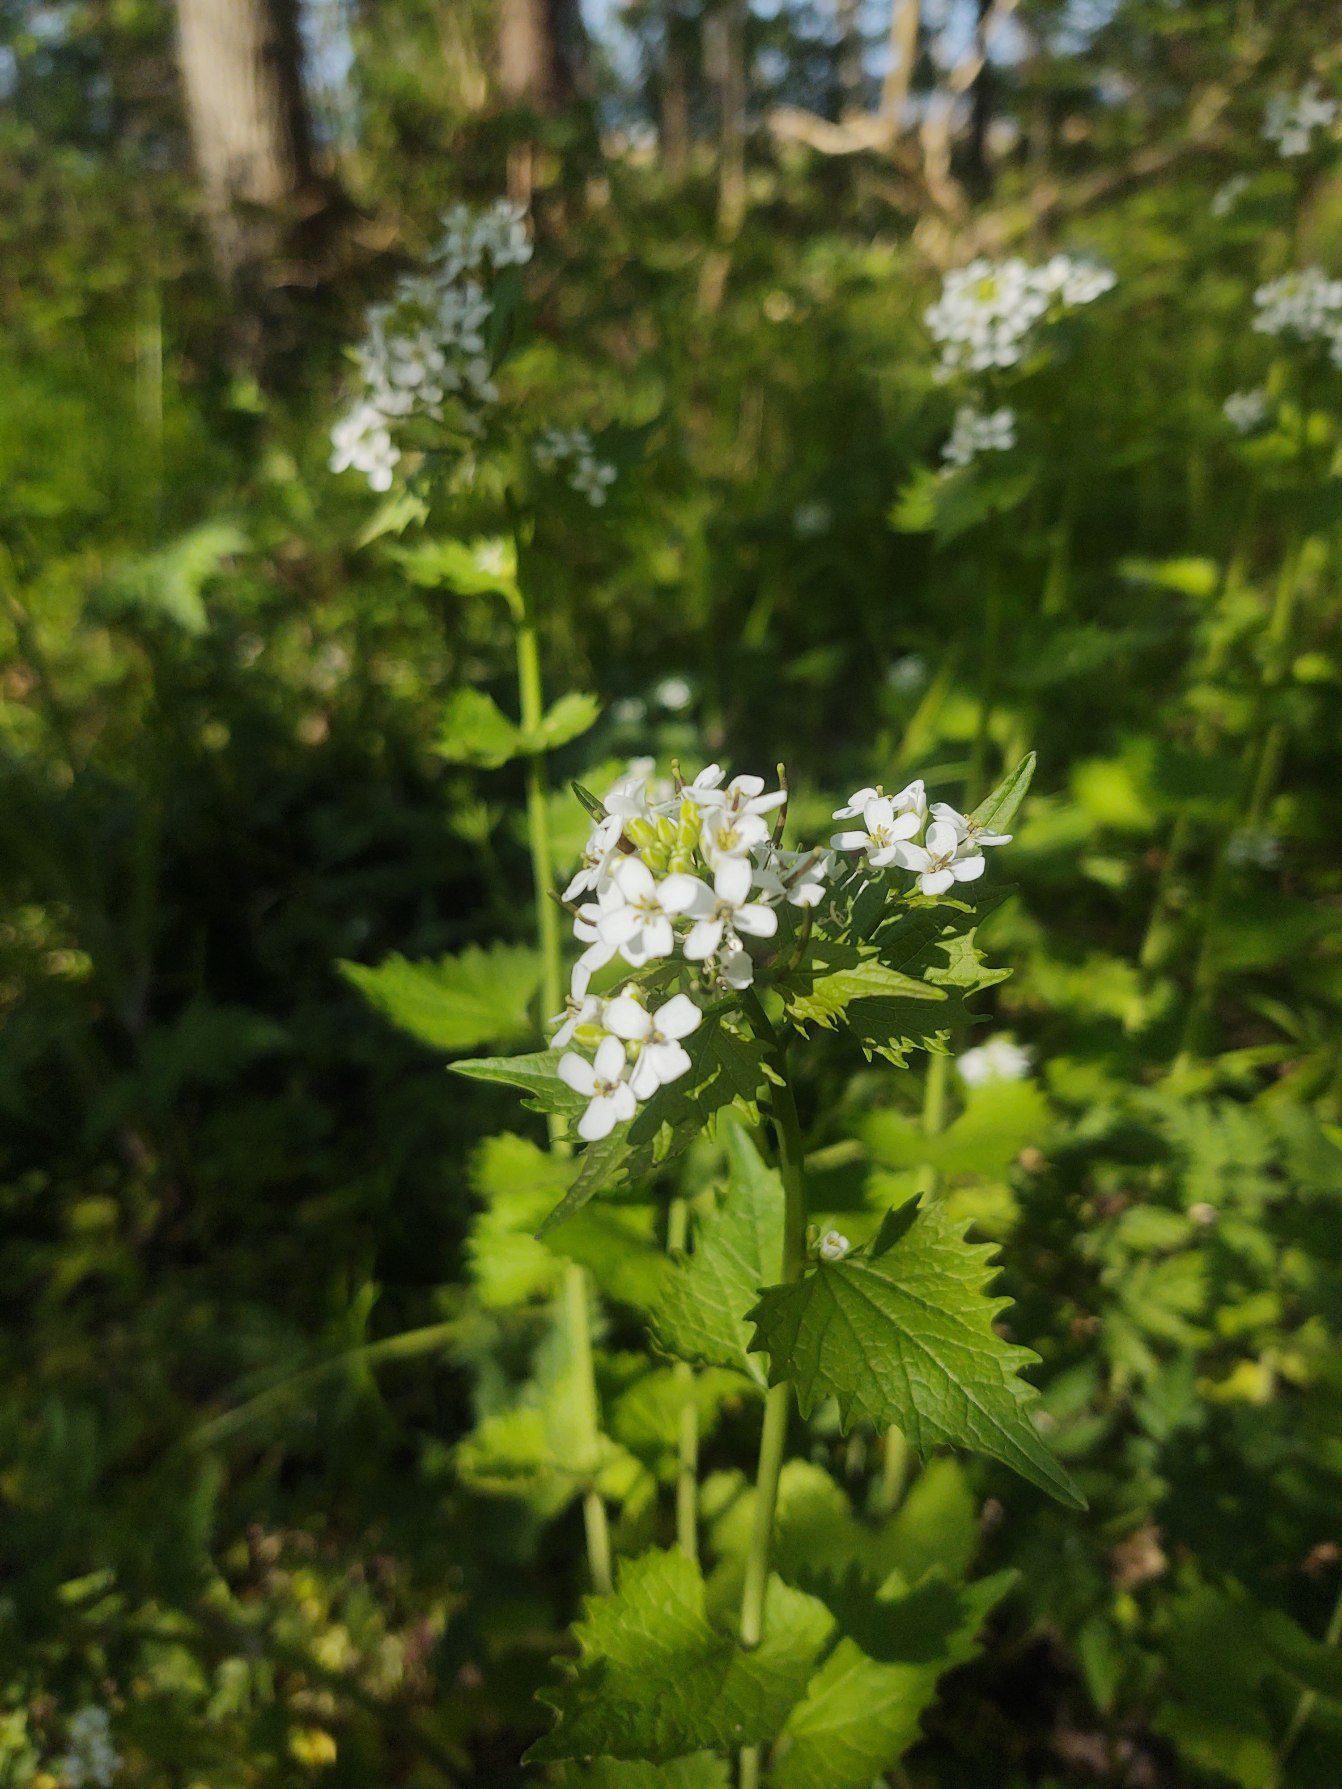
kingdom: Plantae
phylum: Tracheophyta
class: Magnoliopsida
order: Brassicales
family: Brassicaceae
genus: Alliaria
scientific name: Alliaria petiolata
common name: Løgkarse
